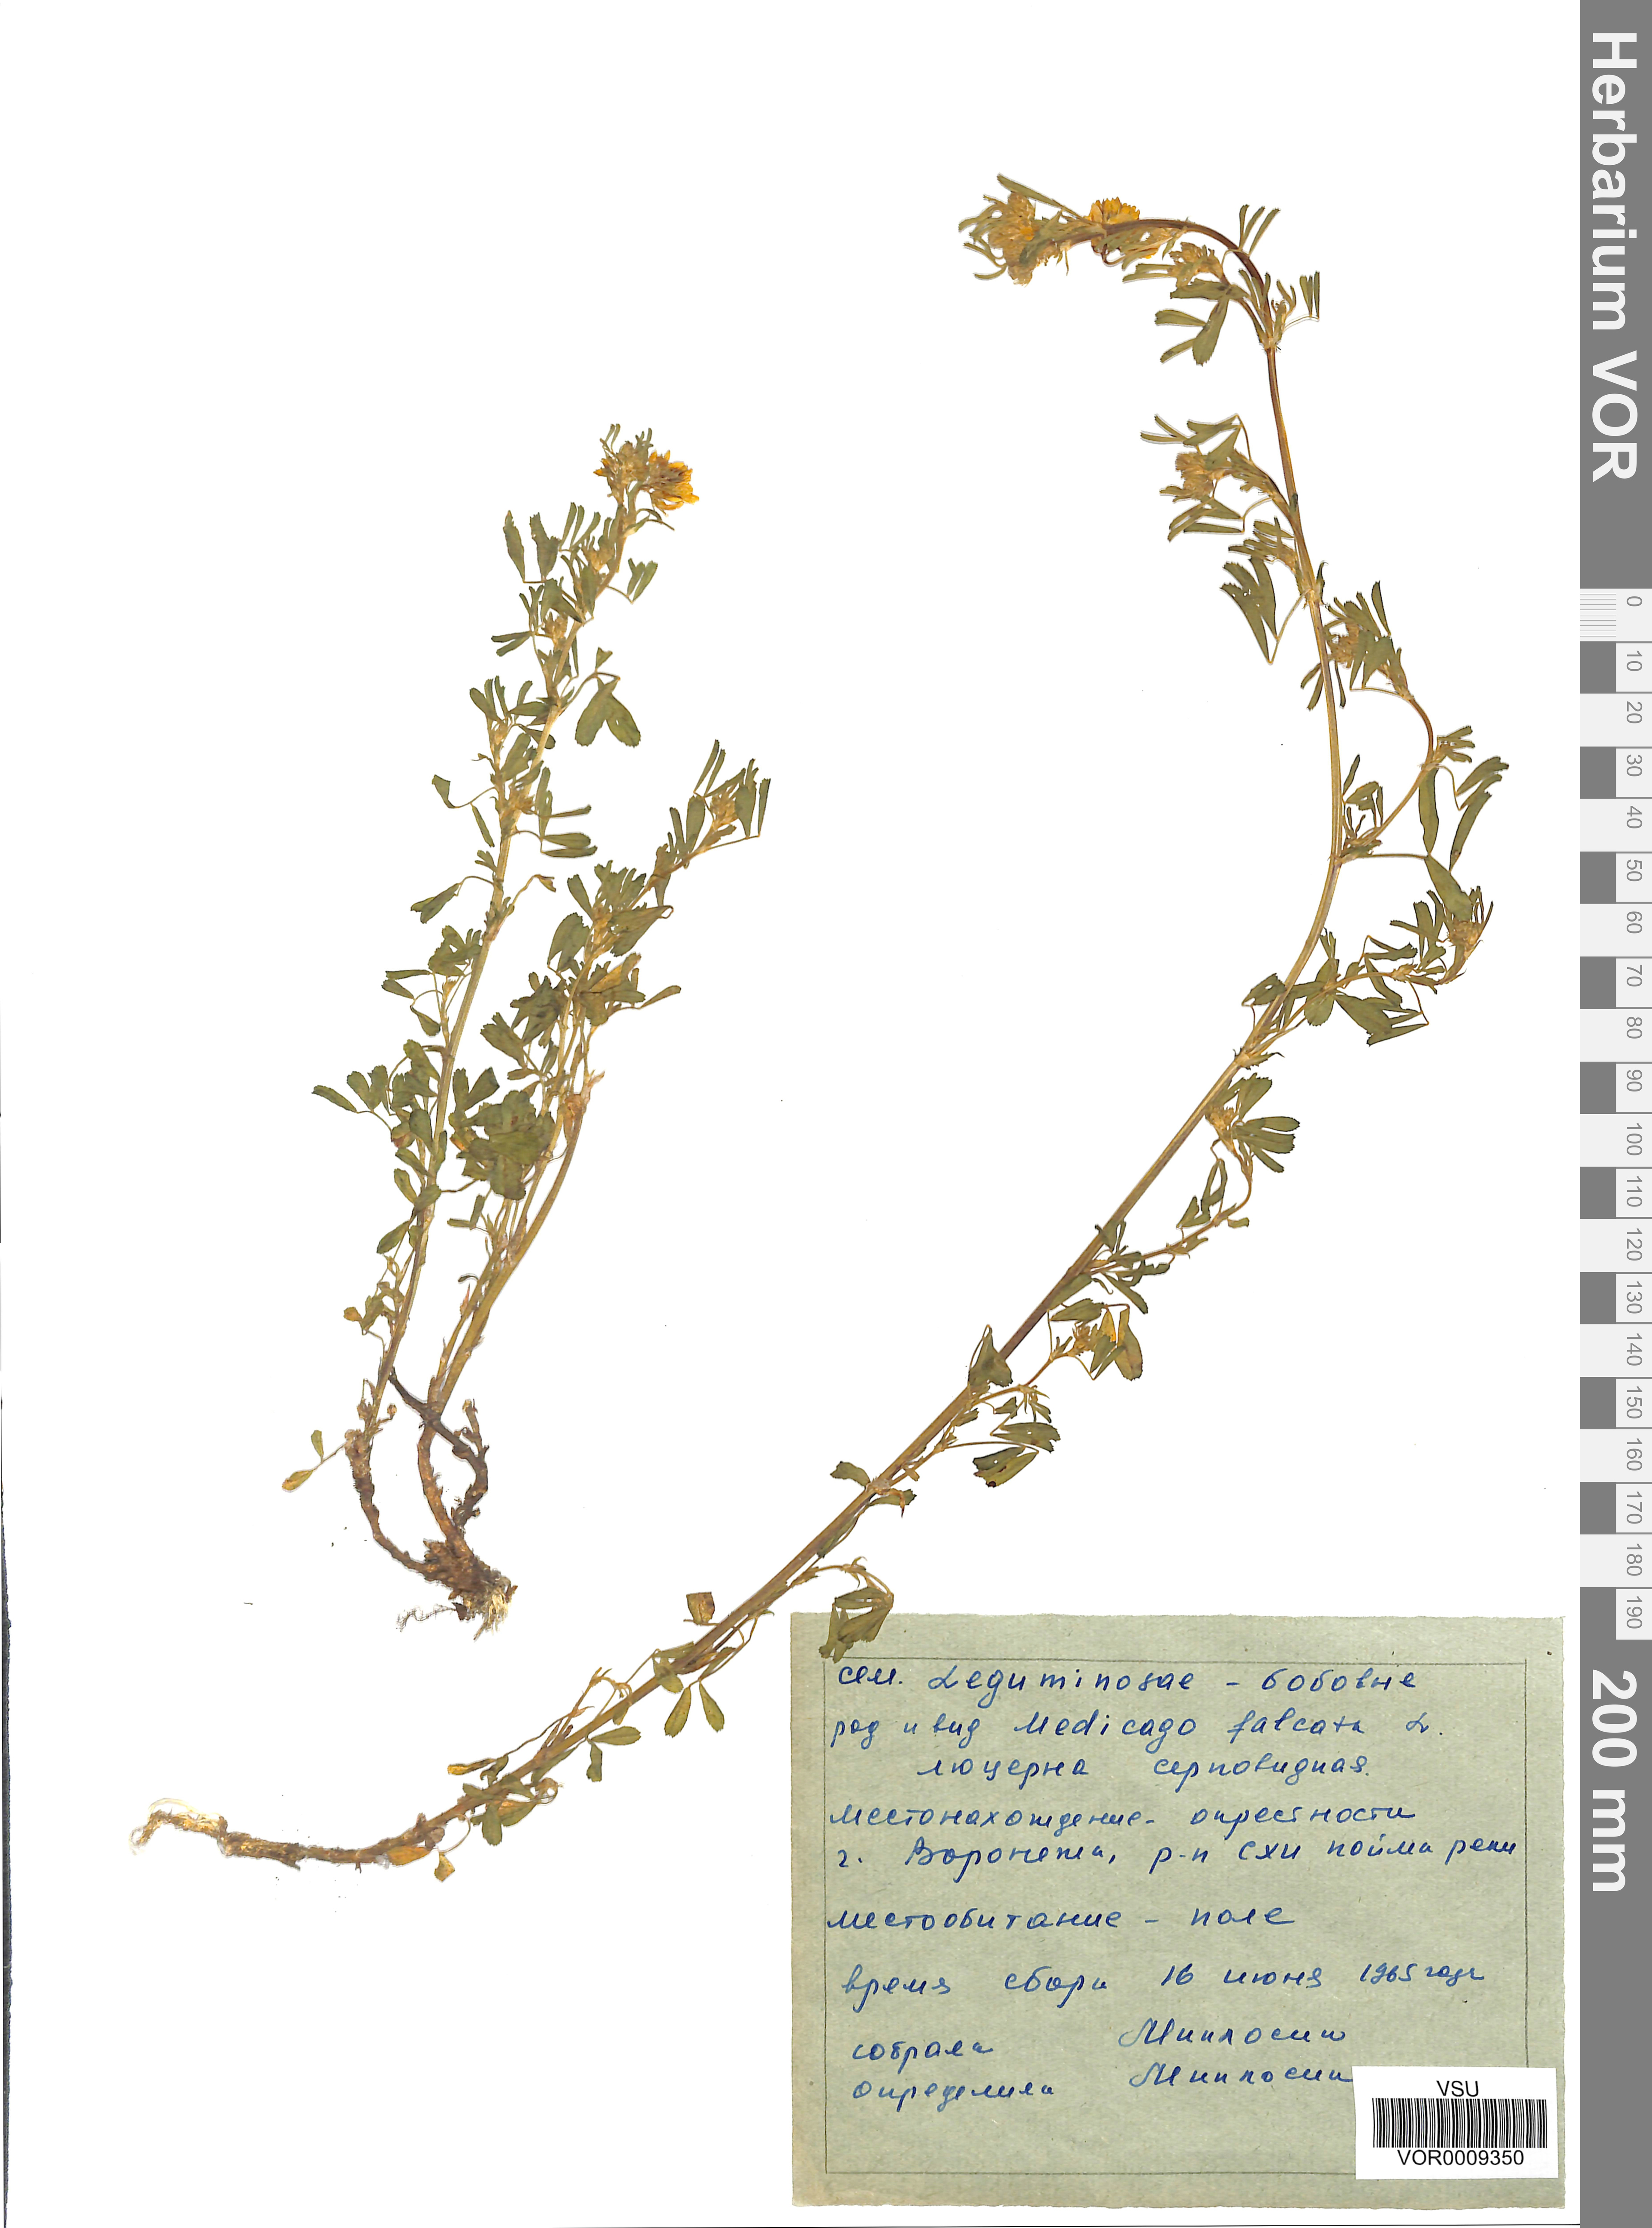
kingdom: Plantae
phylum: Tracheophyta
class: Magnoliopsida
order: Fabales
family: Fabaceae
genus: Medicago
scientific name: Medicago falcata
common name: Sickle medick
